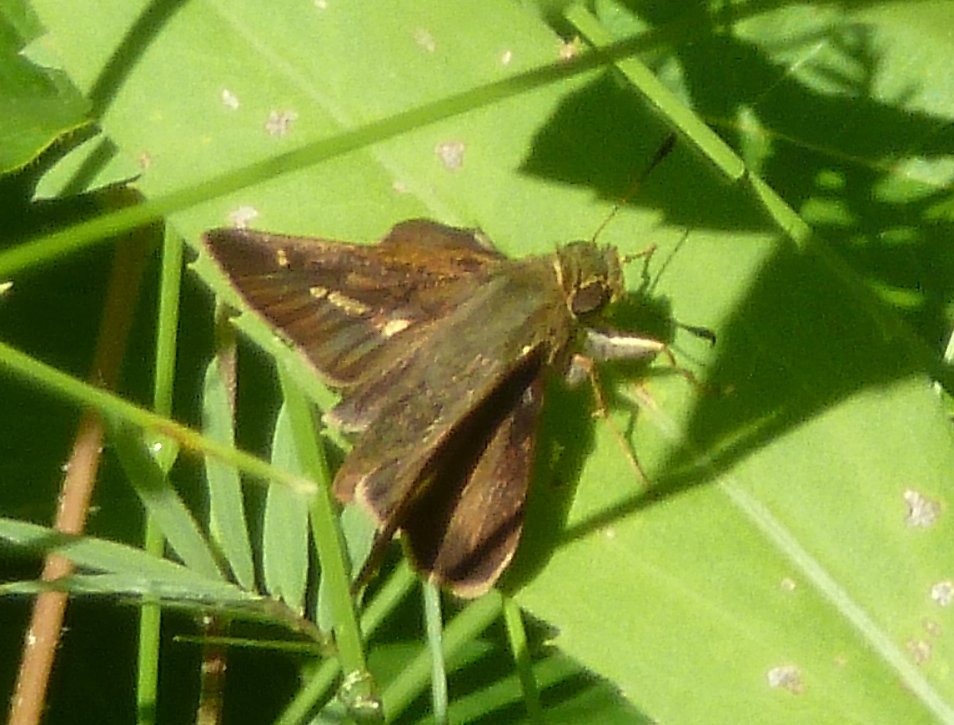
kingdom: Animalia
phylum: Arthropoda
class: Insecta
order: Lepidoptera
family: Hesperiidae
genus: Vernia
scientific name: Vernia verna
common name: Little Glassywing
